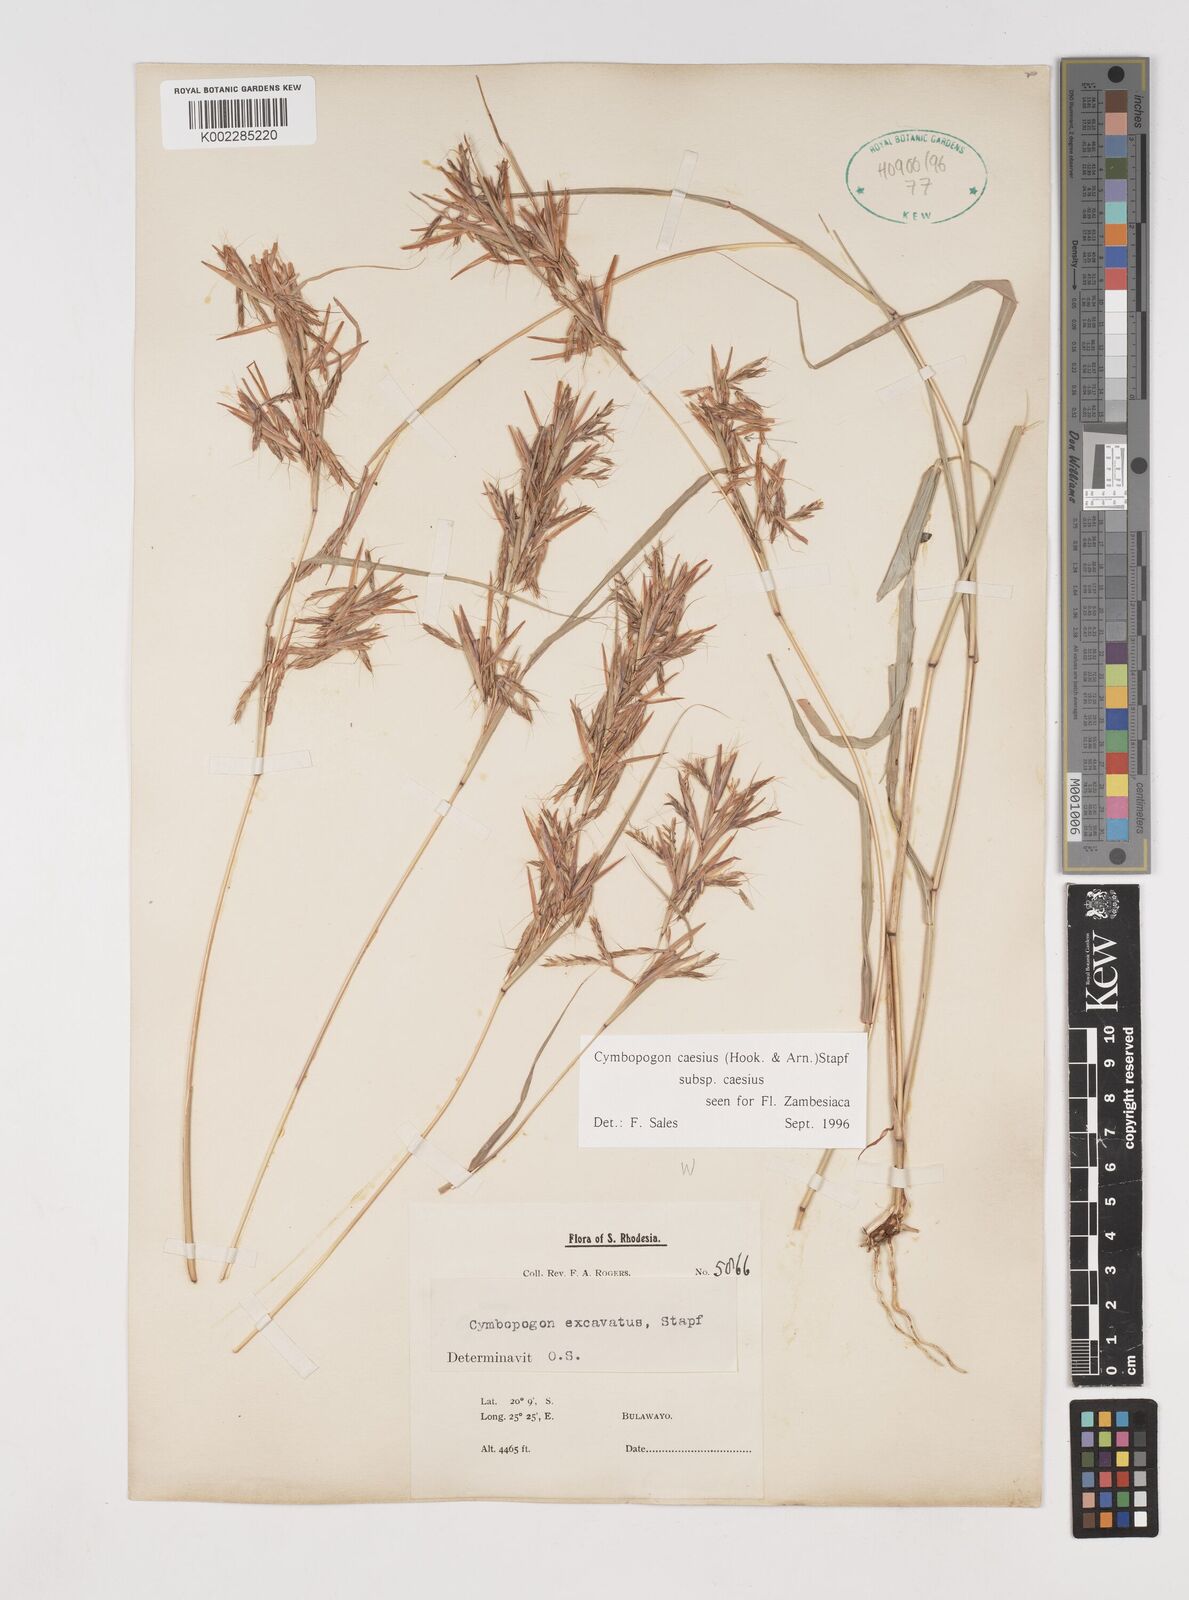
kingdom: Plantae
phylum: Tracheophyta
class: Liliopsida
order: Poales
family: Poaceae
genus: Cymbopogon
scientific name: Cymbopogon caesius
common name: Kachi grass
